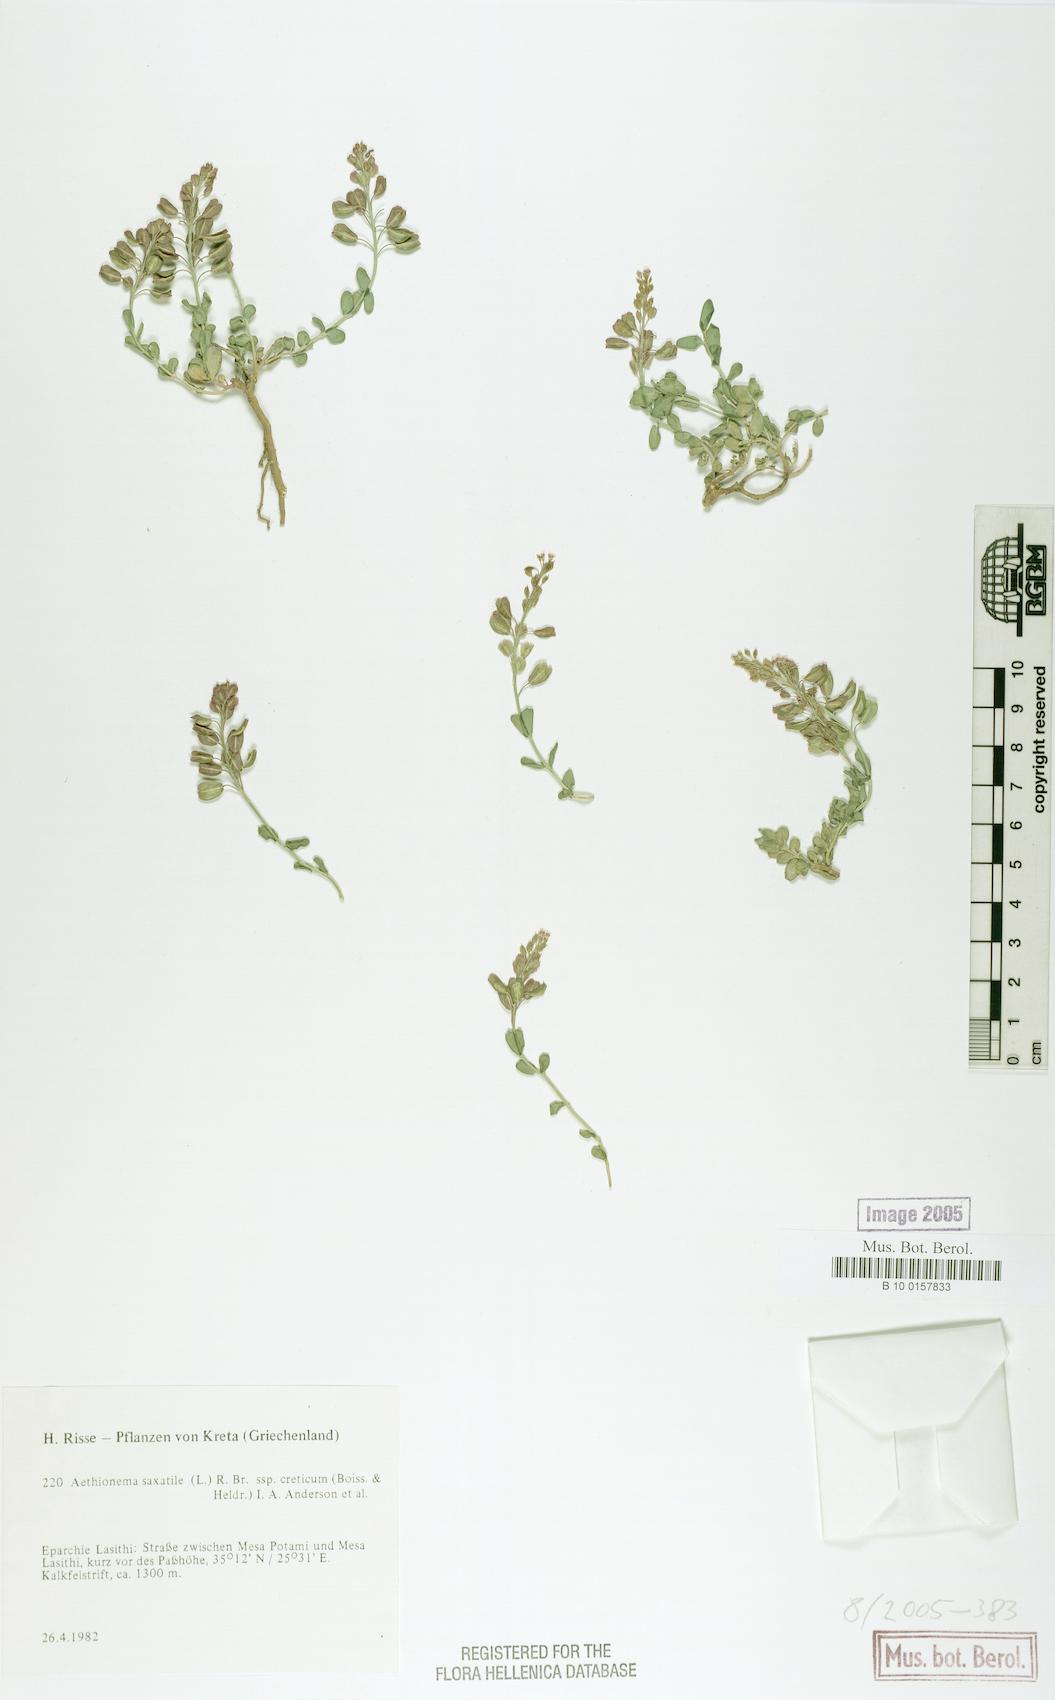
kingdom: Plantae
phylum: Tracheophyta
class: Magnoliopsida
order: Brassicales
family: Brassicaceae
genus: Aethionema
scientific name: Aethionema saxatile
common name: Burnt candytuft
